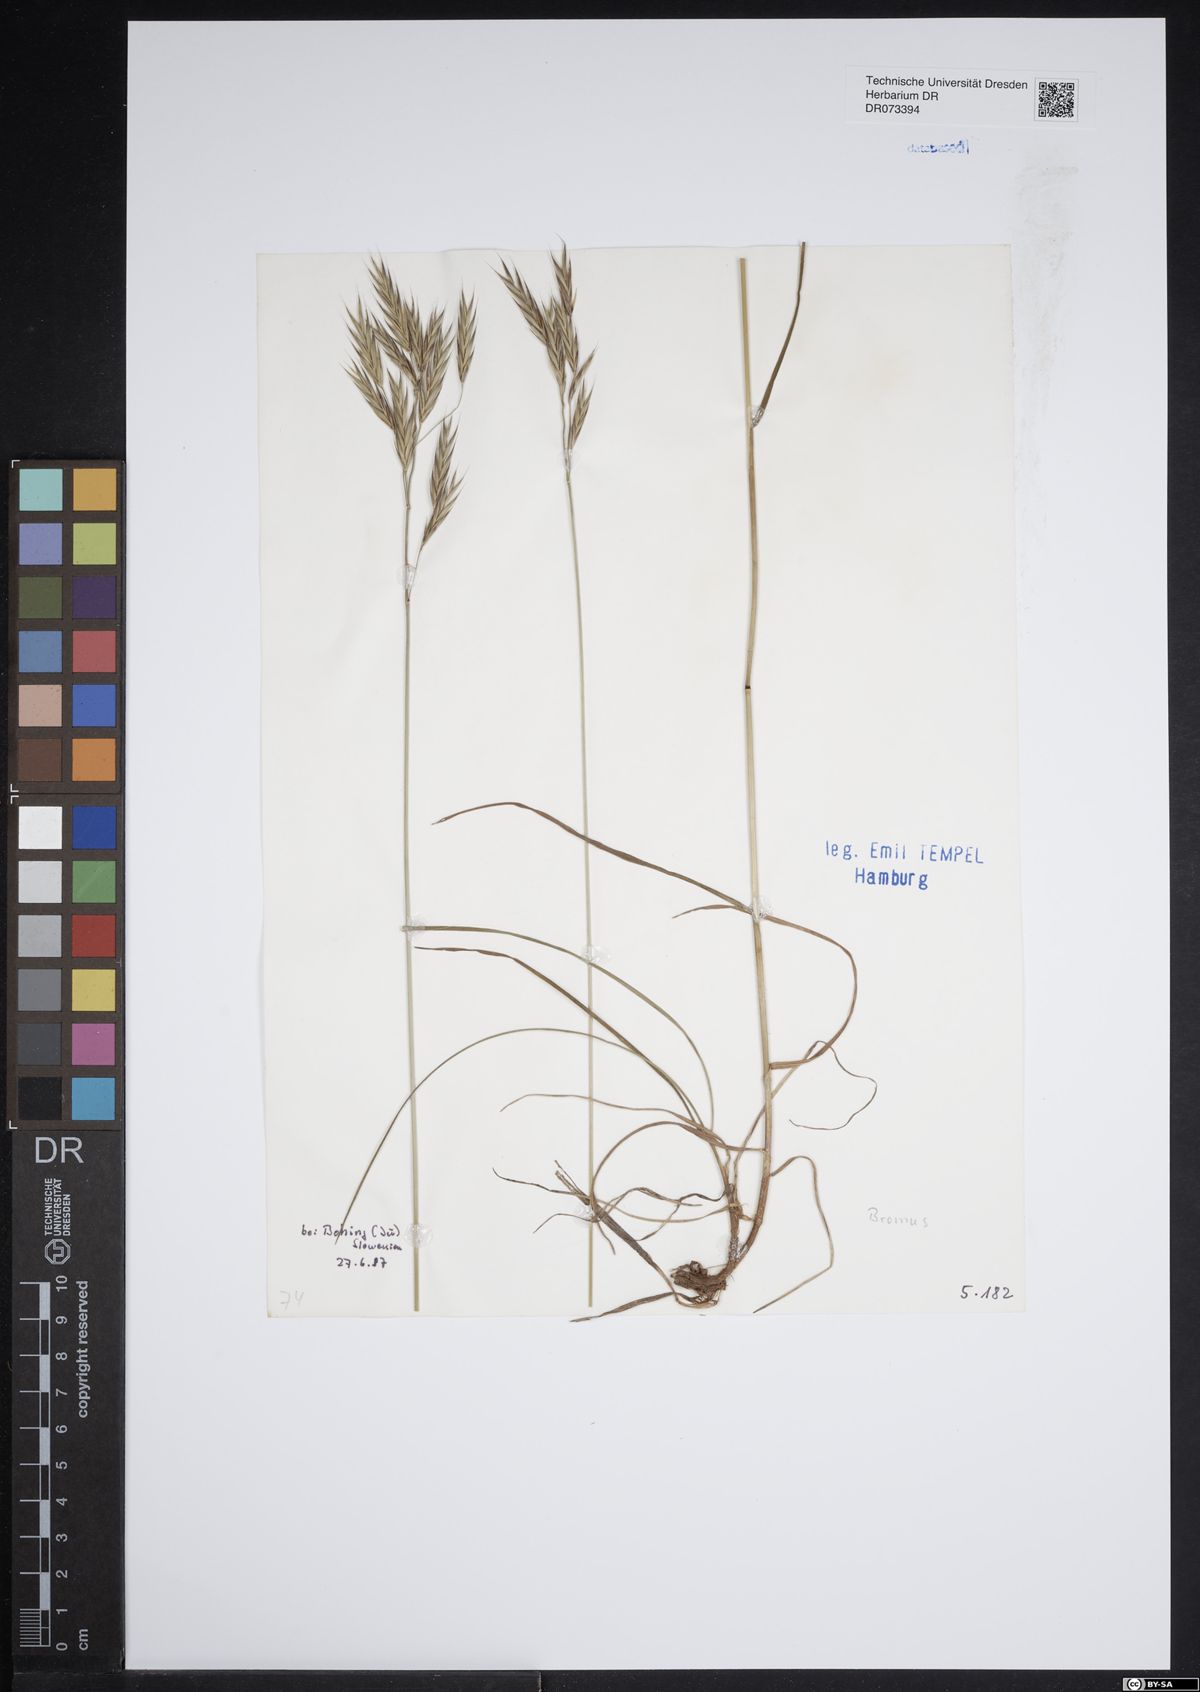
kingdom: Plantae
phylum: Tracheophyta
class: Liliopsida
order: Poales
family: Poaceae
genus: Bromus
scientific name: Bromus
